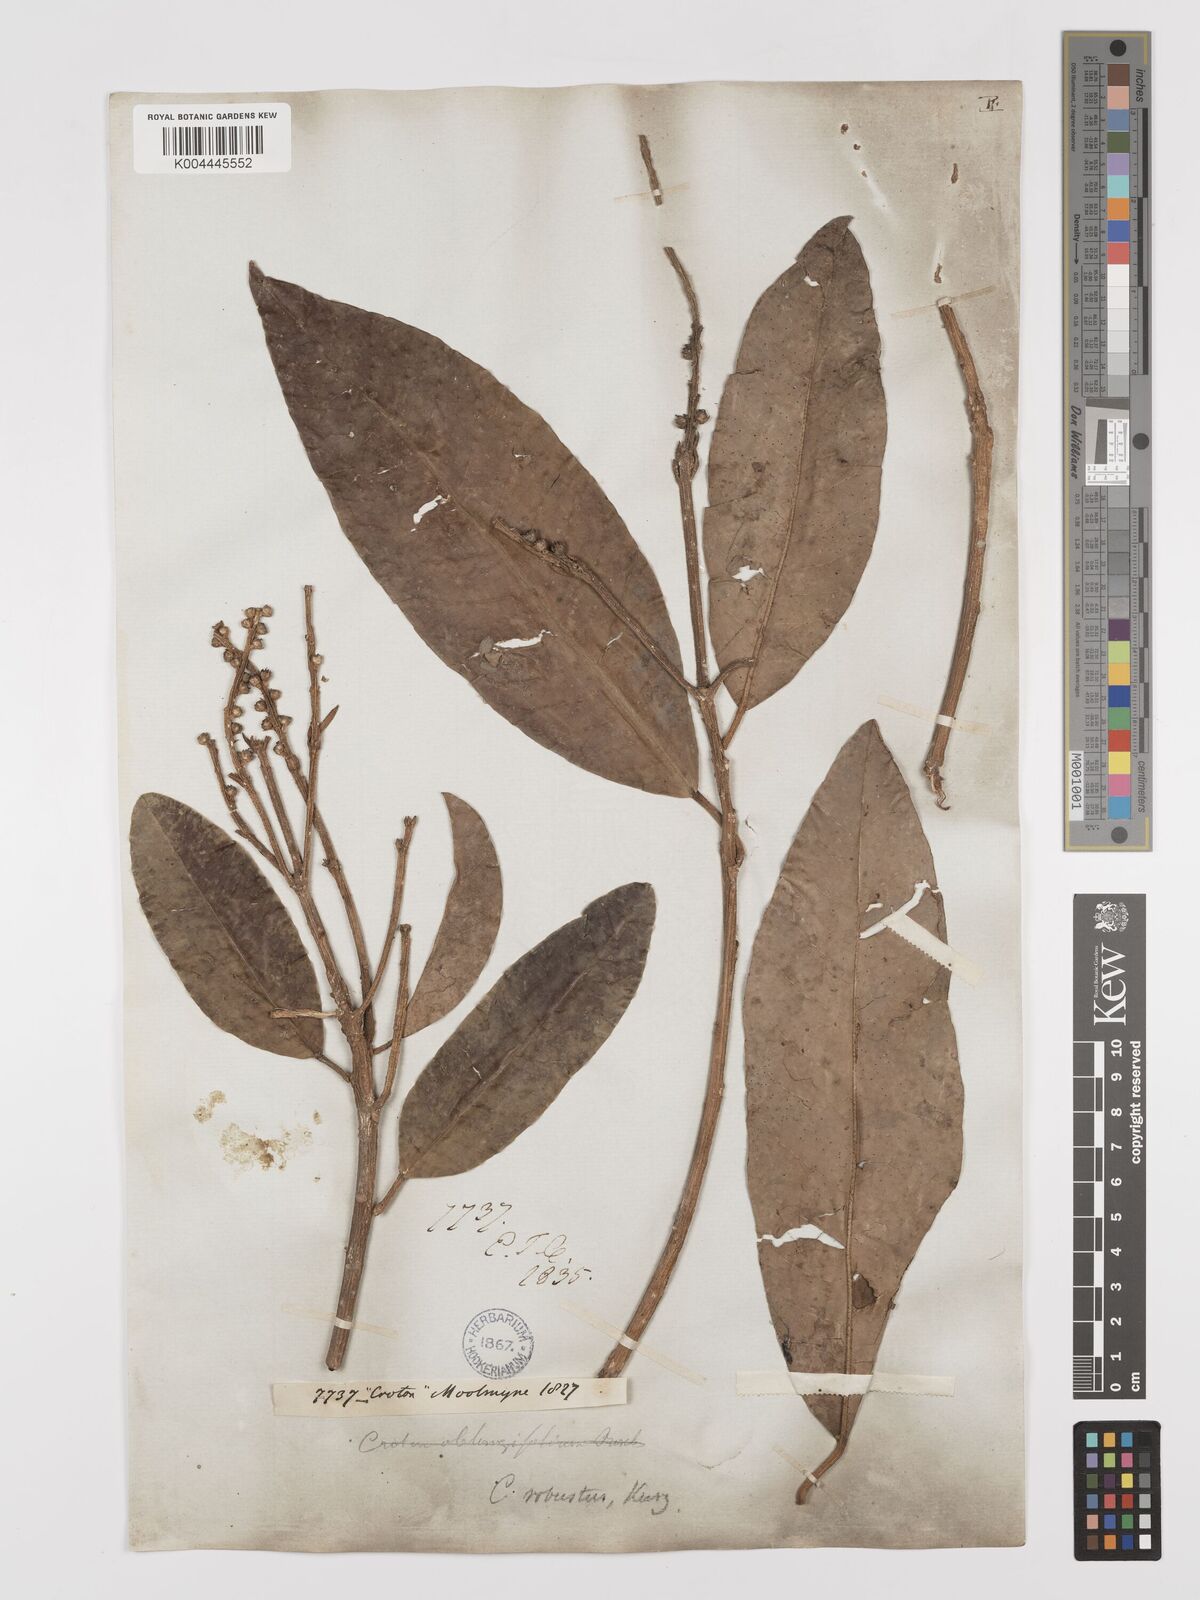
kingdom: Plantae
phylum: Tracheophyta
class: Magnoliopsida
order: Malpighiales
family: Euphorbiaceae
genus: Croton
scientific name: Croton robustus
